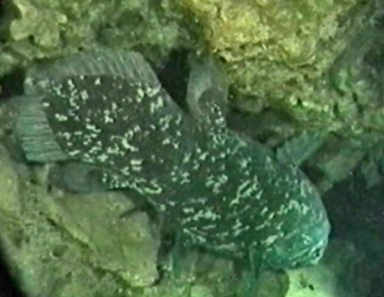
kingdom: Animalia
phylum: Chordata
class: Coelacanthi
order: Coelacanthiformes
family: Latimeriidae
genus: Latimeria
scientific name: Latimeria chalumnae
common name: Coelacanth
